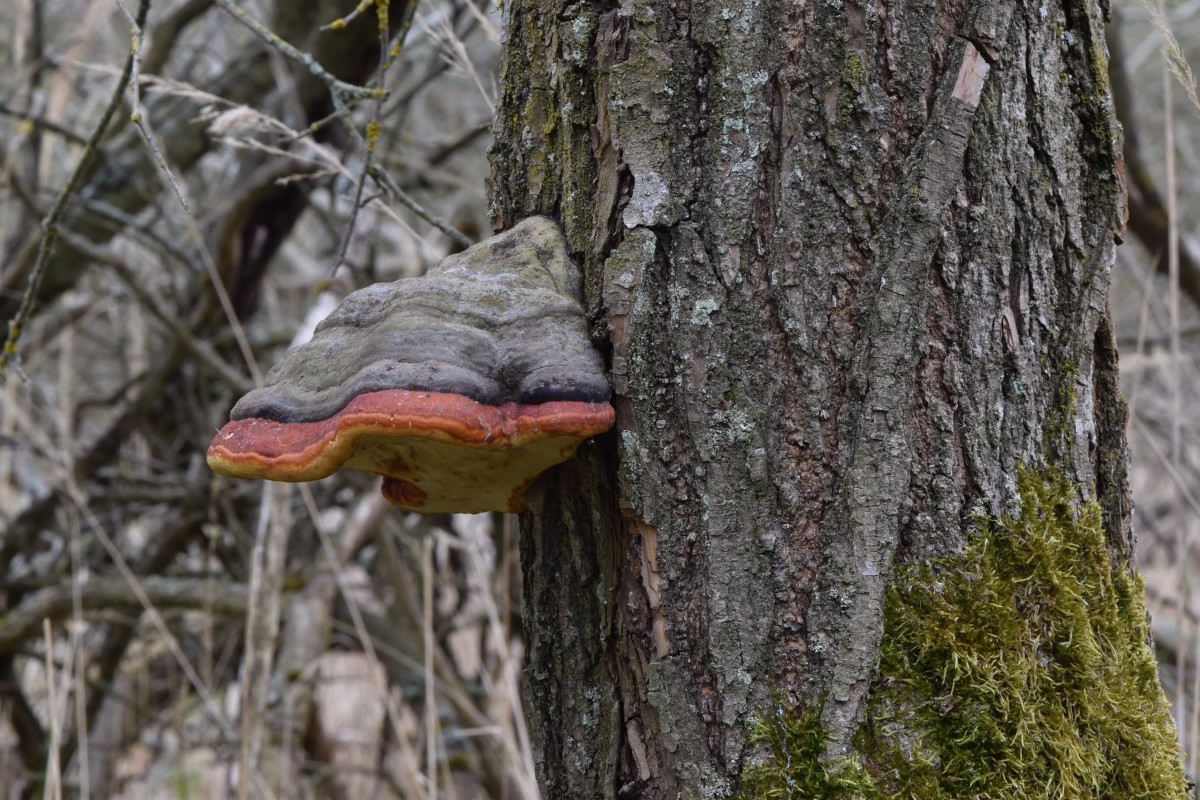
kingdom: Fungi
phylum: Basidiomycota
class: Agaricomycetes
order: Polyporales
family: Fomitopsidaceae
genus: Fomitopsis
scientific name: Fomitopsis pinicola
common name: randbæltet hovporesvamp
